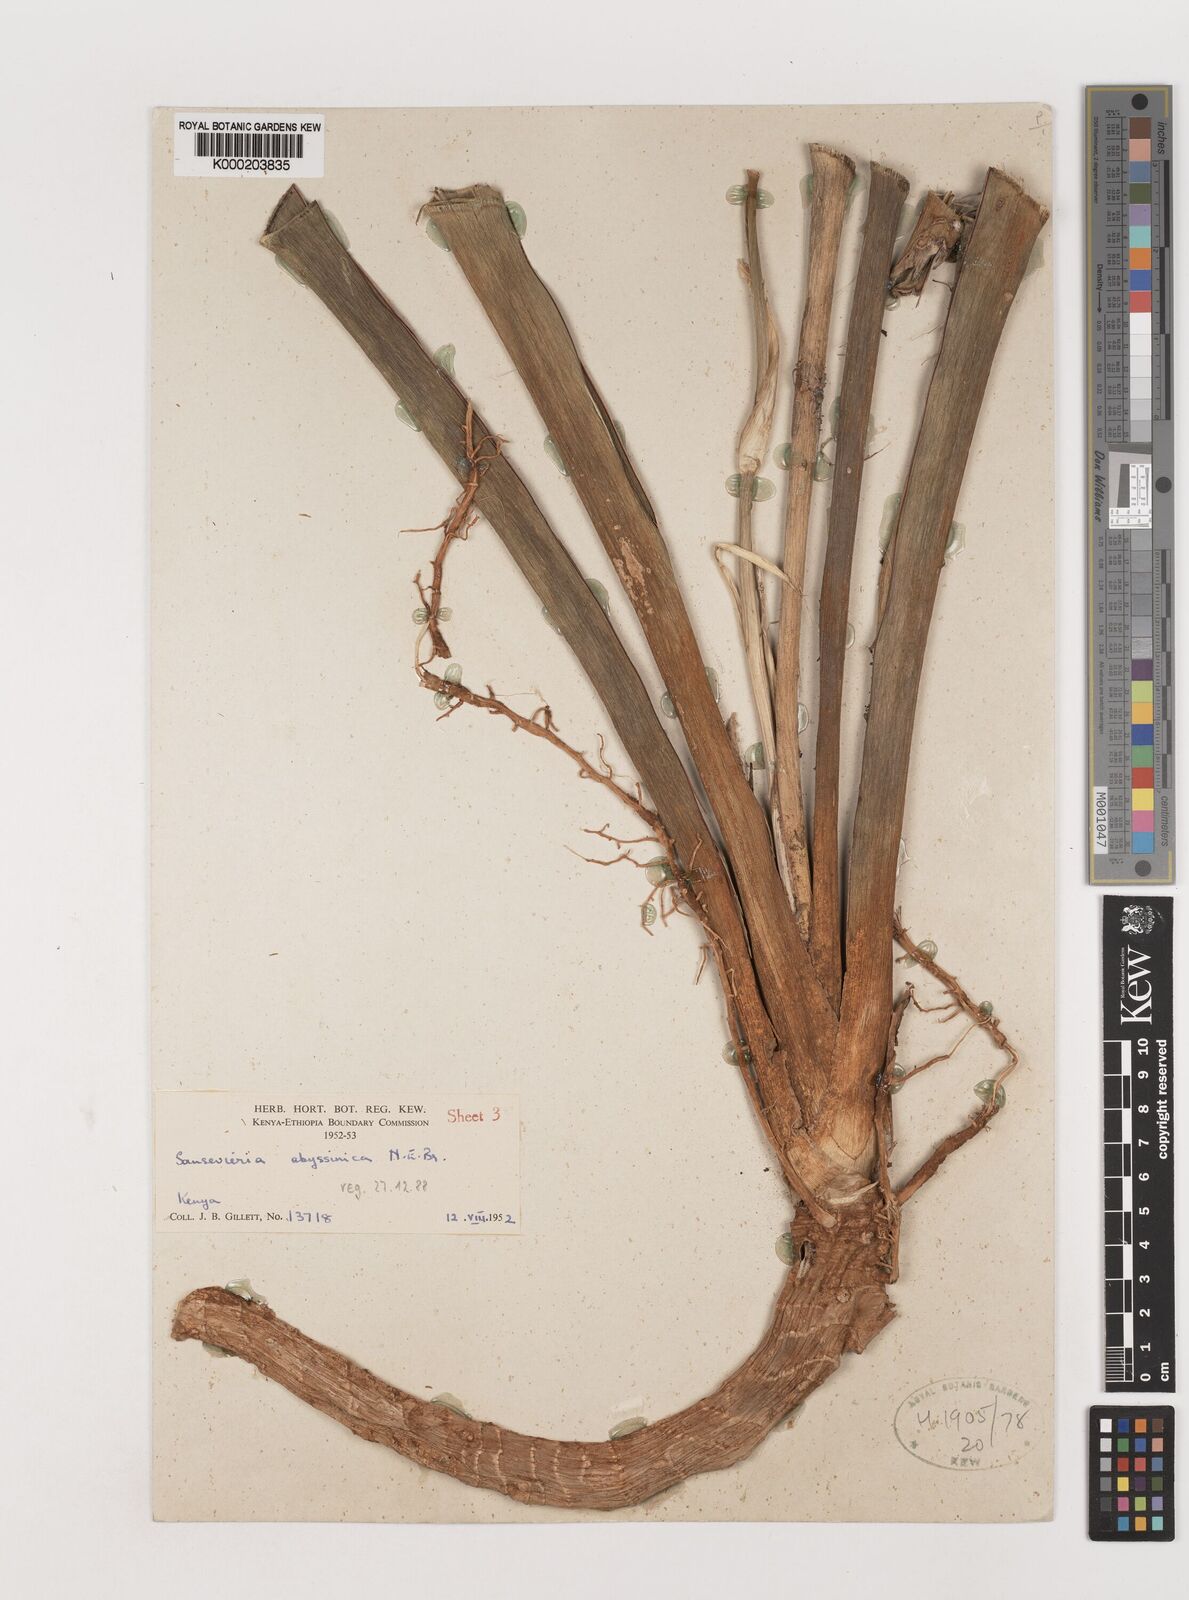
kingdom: Plantae
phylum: Tracheophyta
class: Liliopsida
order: Asparagales
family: Asparagaceae
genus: Dracaena
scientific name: Dracaena forskaliana
